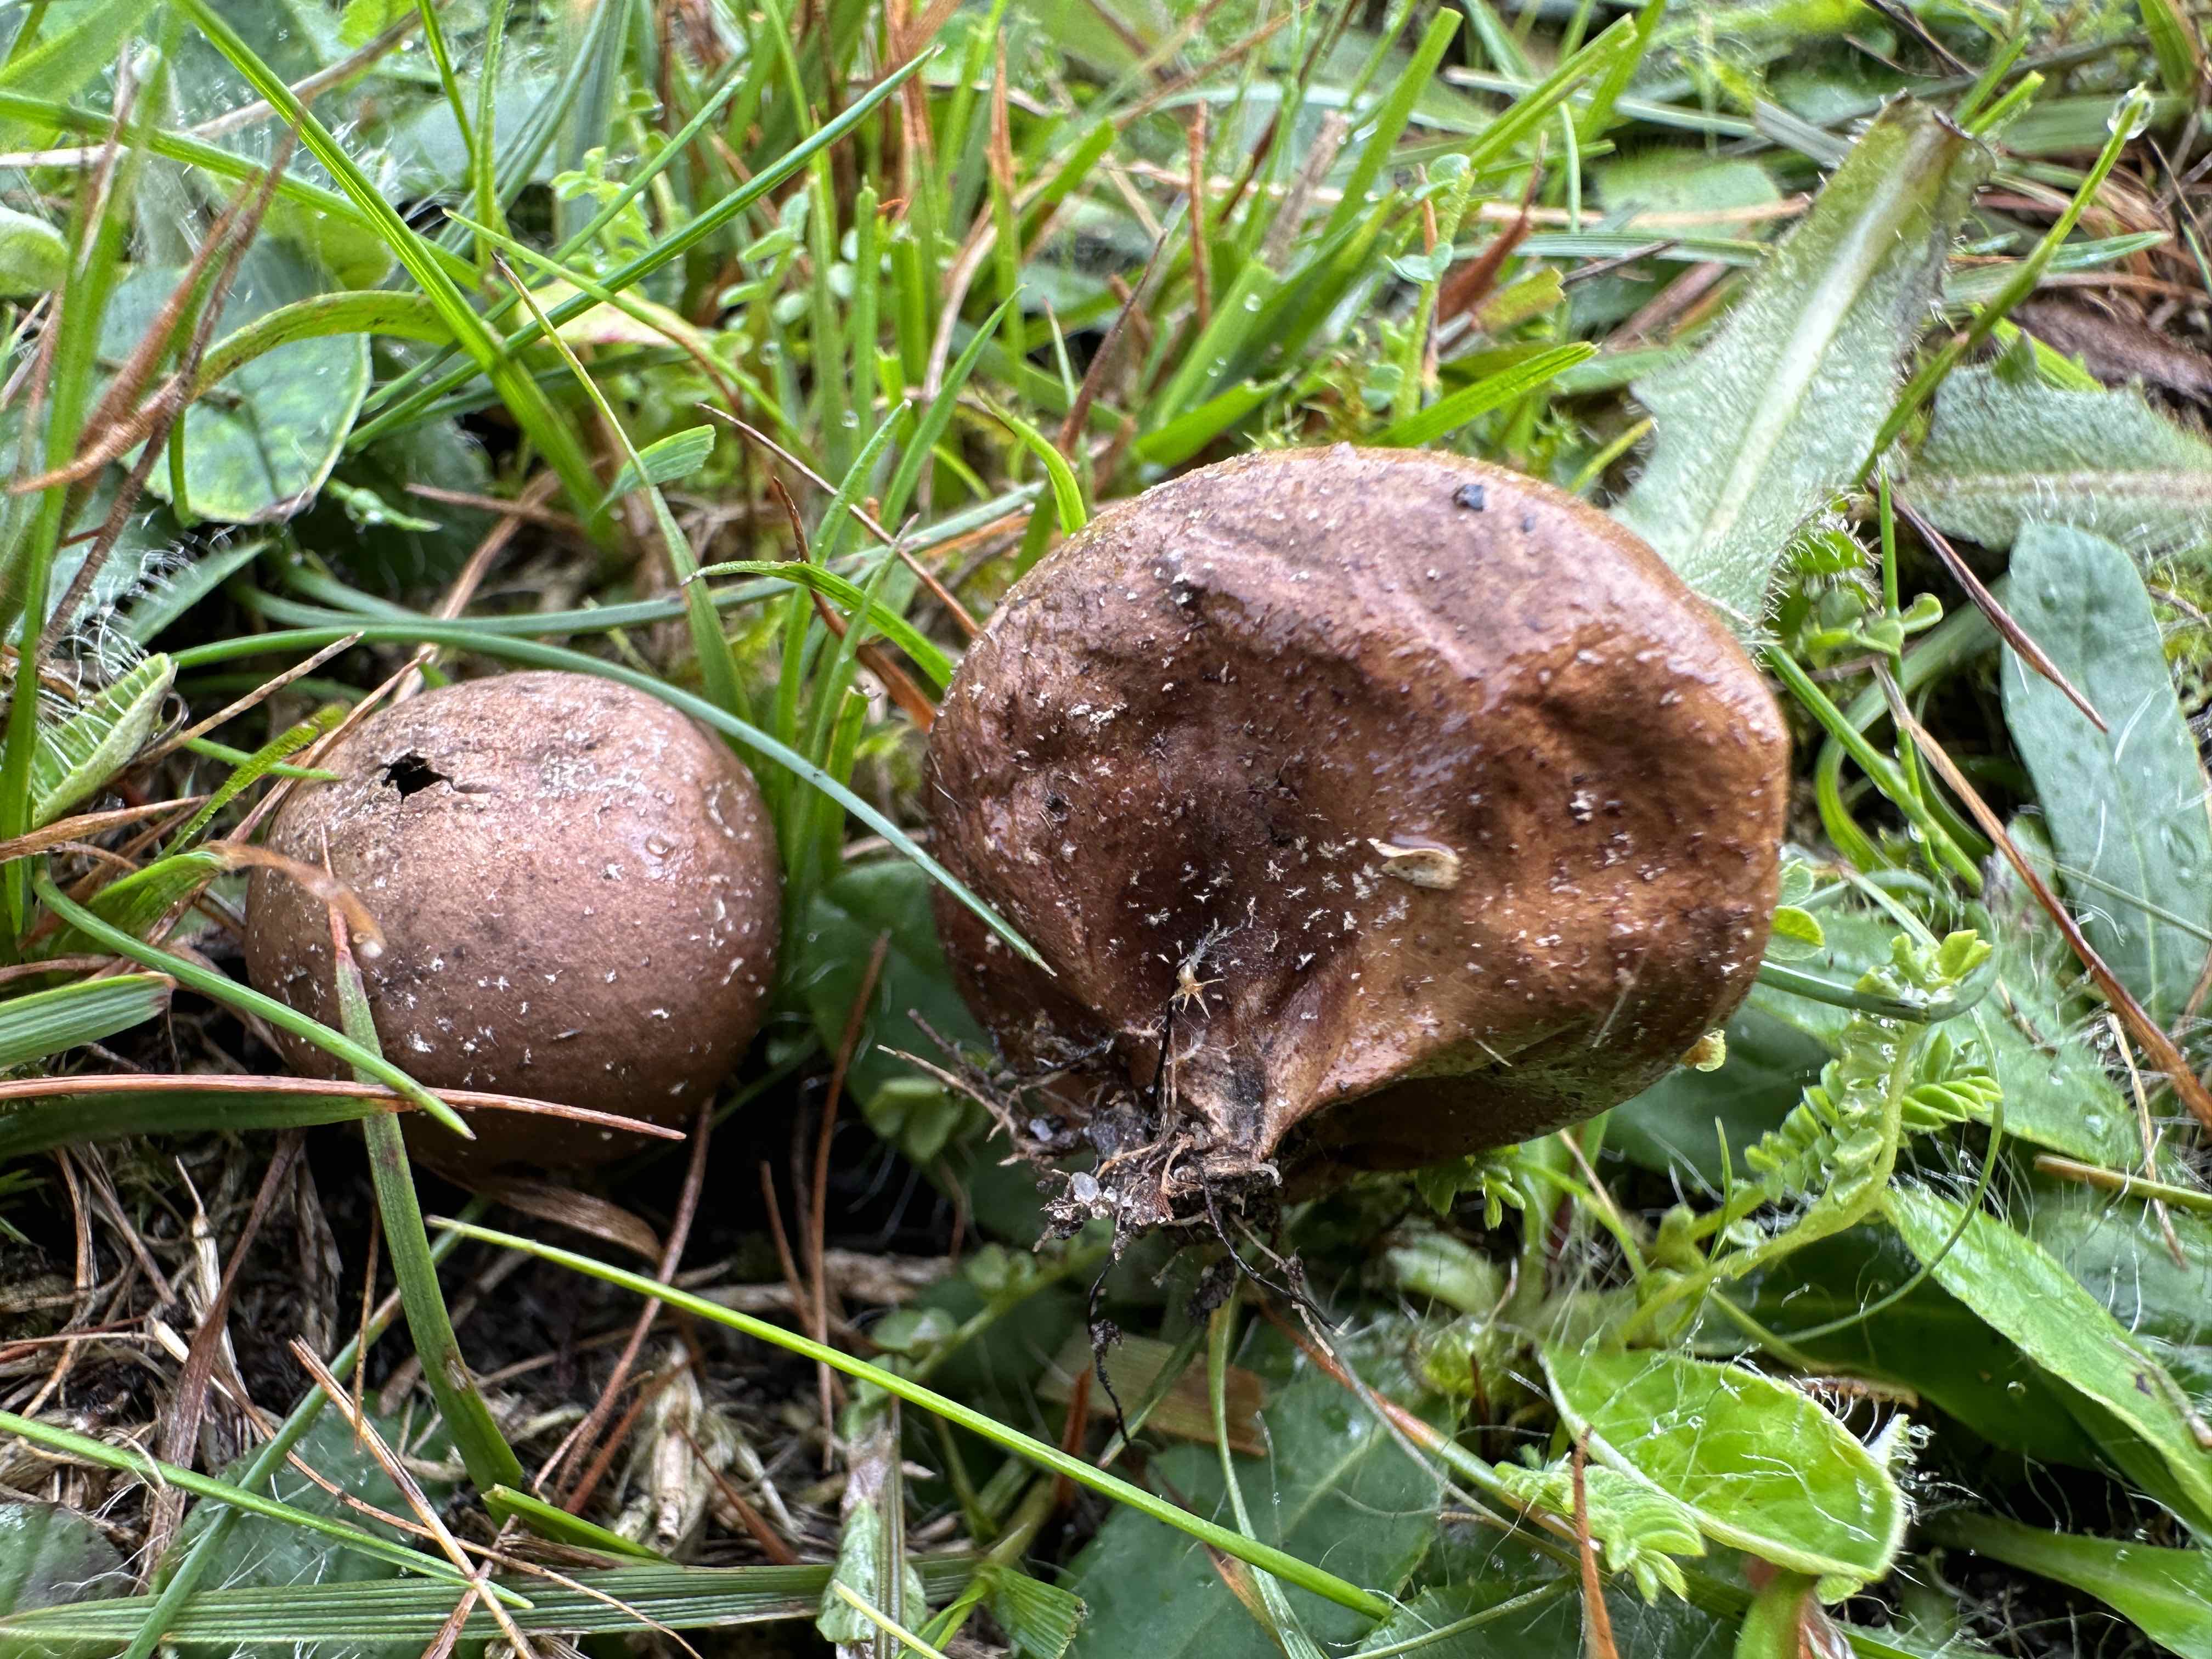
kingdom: Fungi
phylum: Basidiomycota
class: Agaricomycetes
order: Agaricales
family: Agaricaceae
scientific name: Agaricaceae
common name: champignonfamilien
